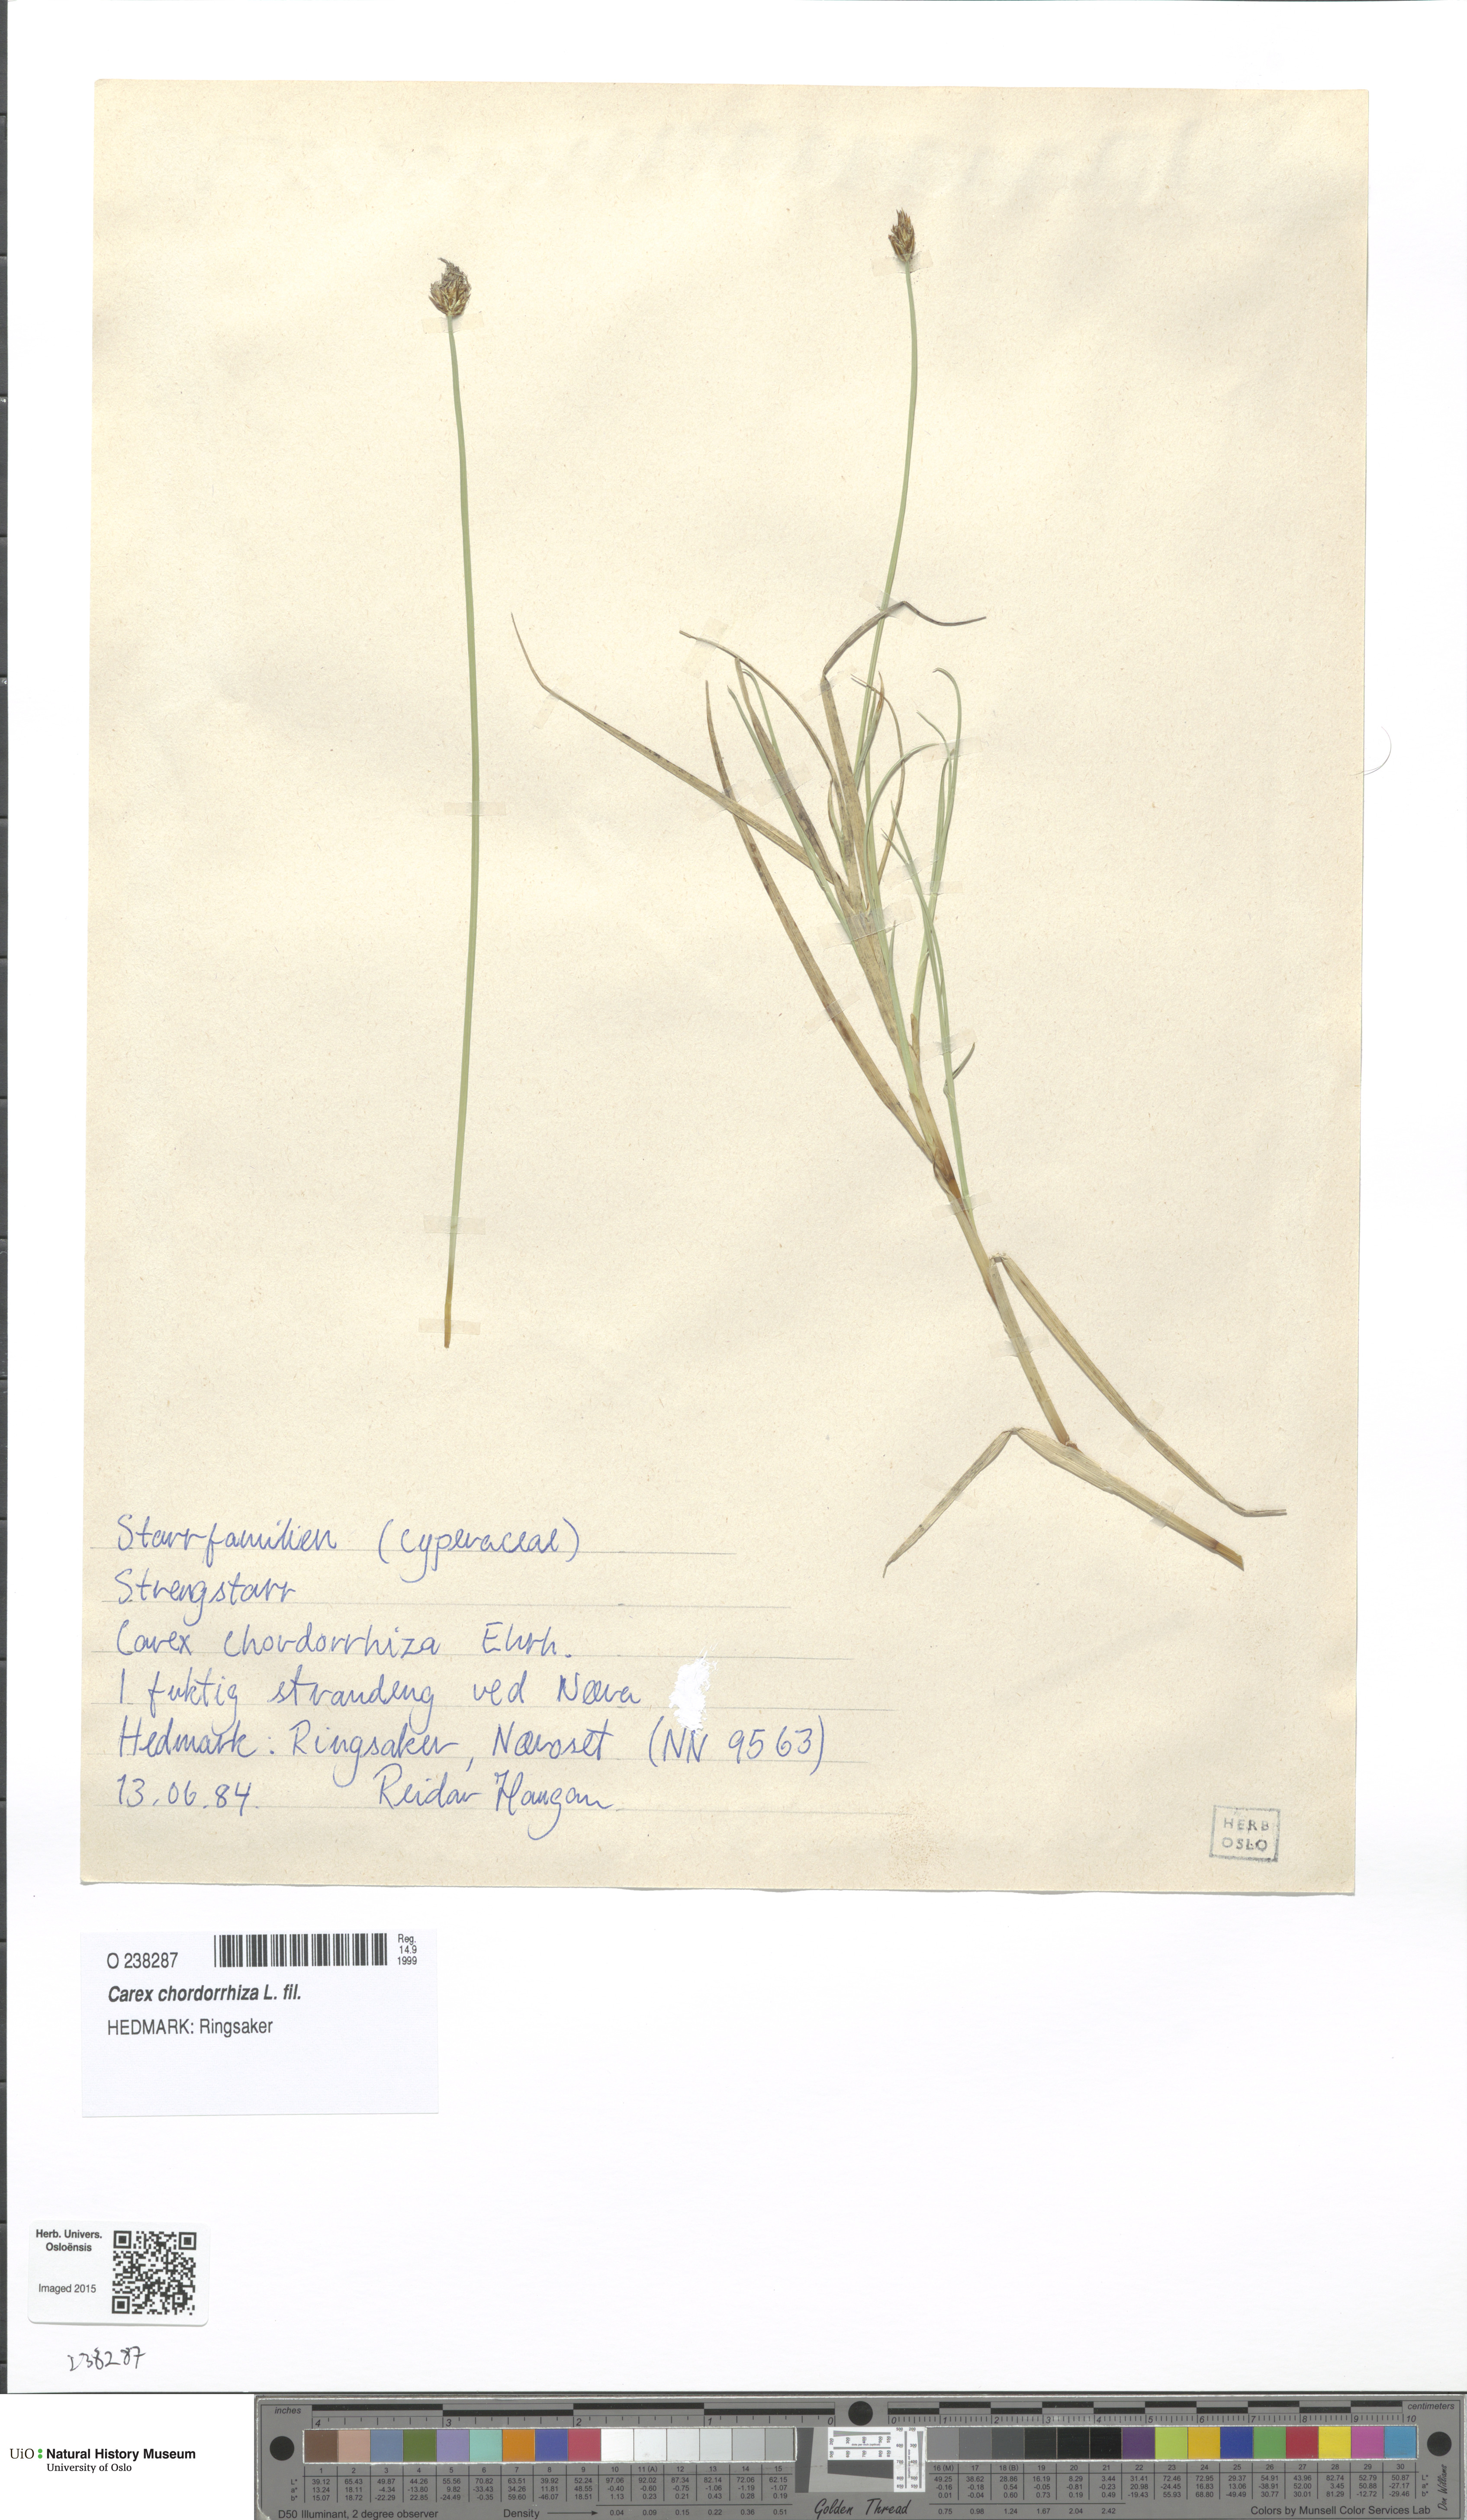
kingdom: Plantae
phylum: Tracheophyta
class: Liliopsida
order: Poales
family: Cyperaceae
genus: Carex
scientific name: Carex chordorrhiza
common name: String sedge
